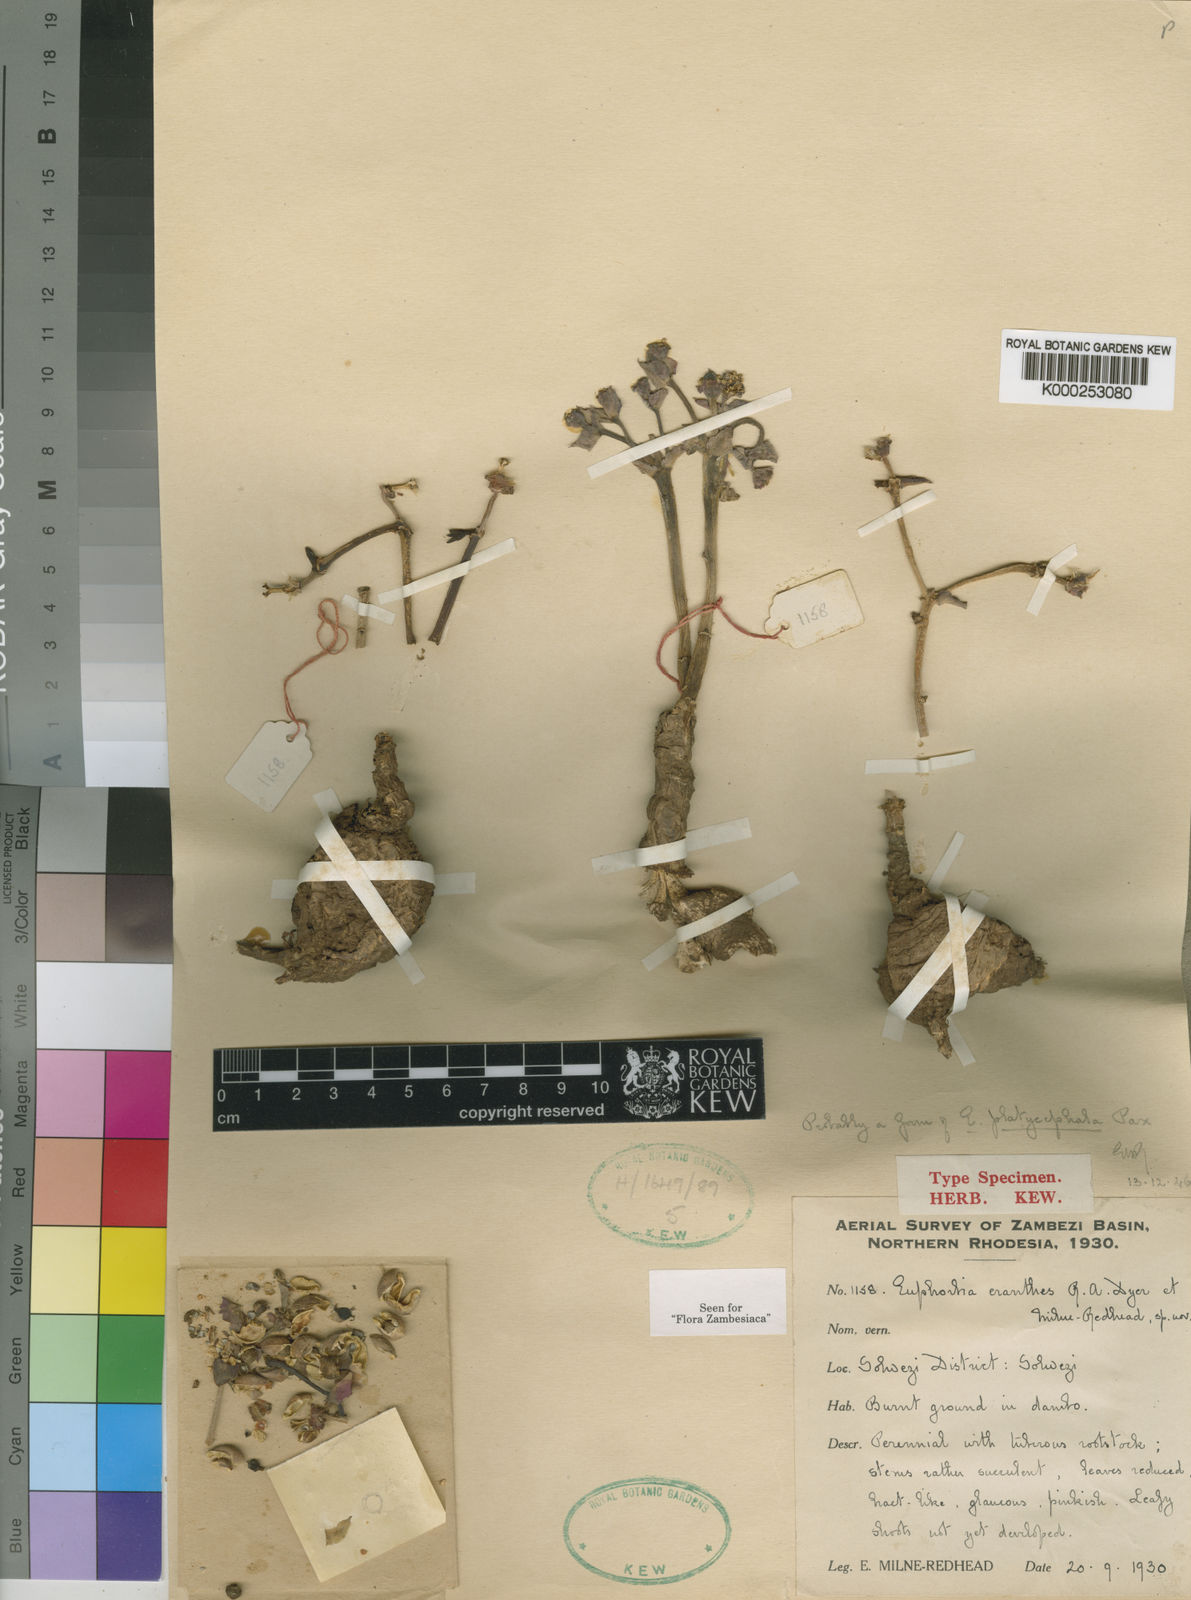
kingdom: Plantae
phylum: Tracheophyta
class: Magnoliopsida
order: Malpighiales
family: Euphorbiaceae
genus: Euphorbia
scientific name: Euphorbia eranthes
